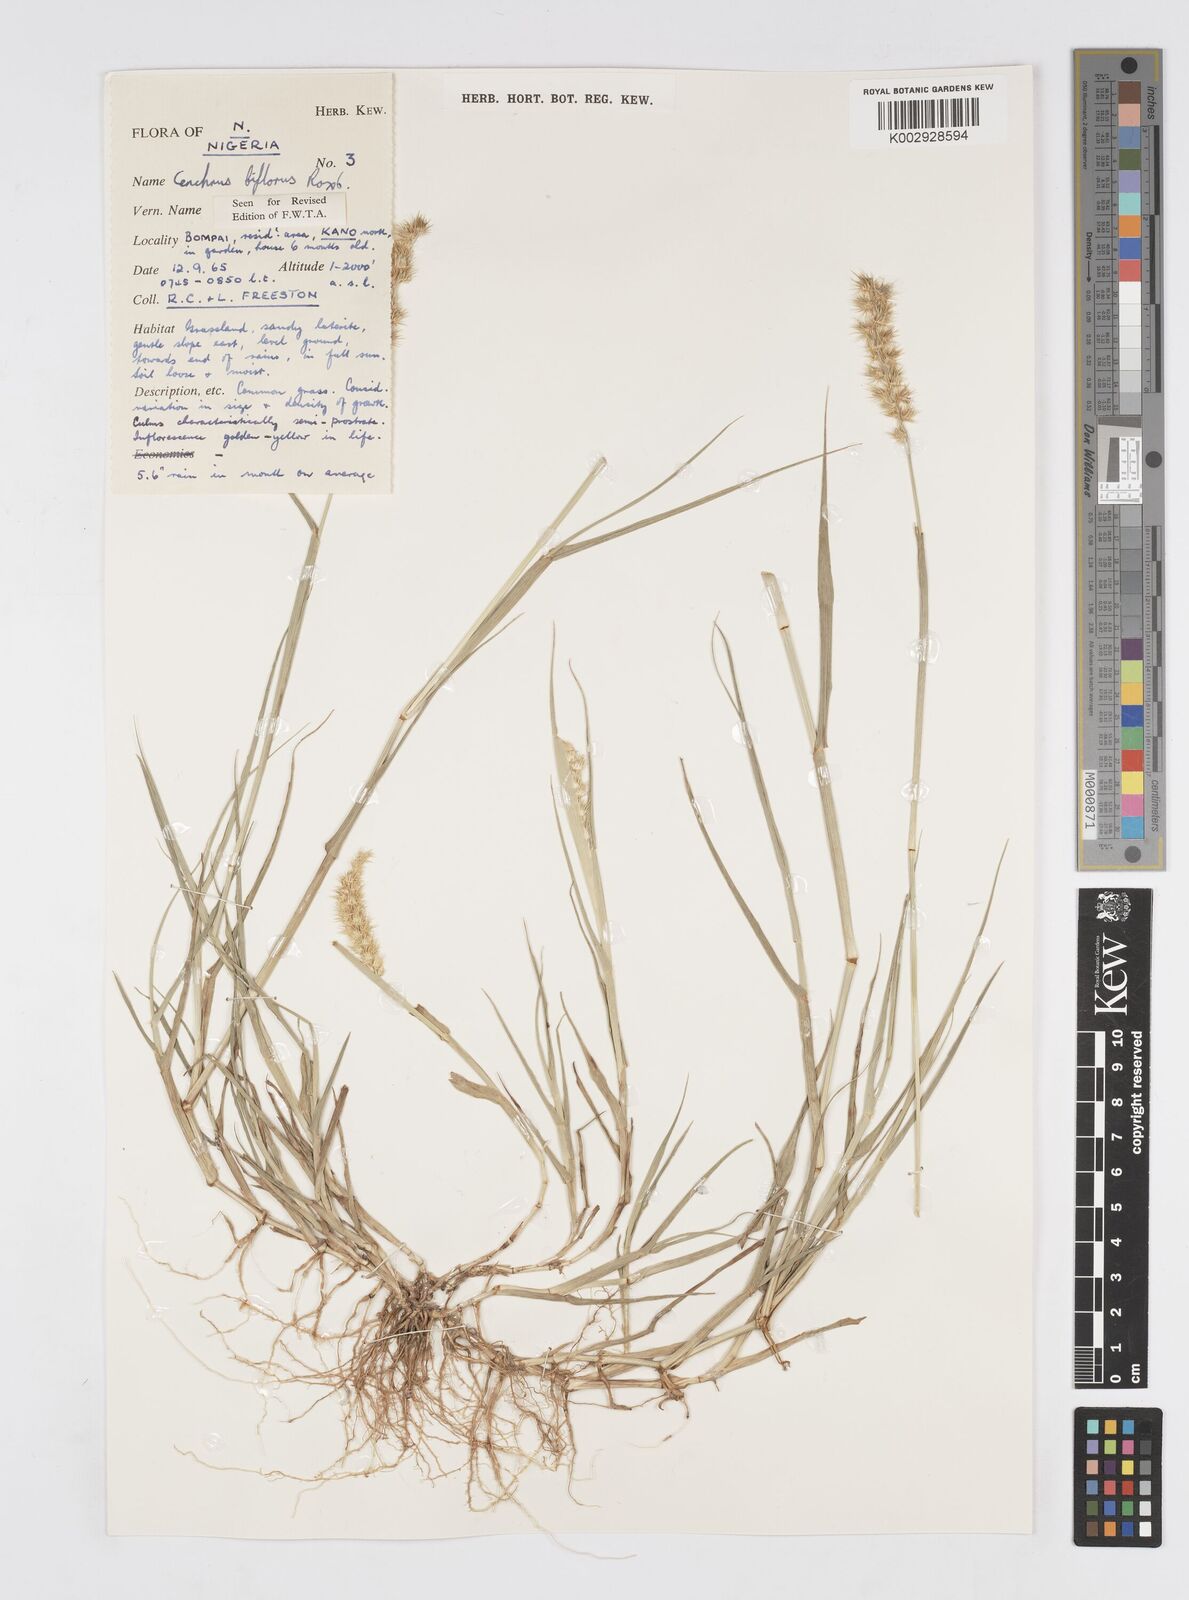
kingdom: Plantae
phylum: Tracheophyta
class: Liliopsida
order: Poales
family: Poaceae
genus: Cenchrus
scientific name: Cenchrus biflorus
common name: Indian sandbur
